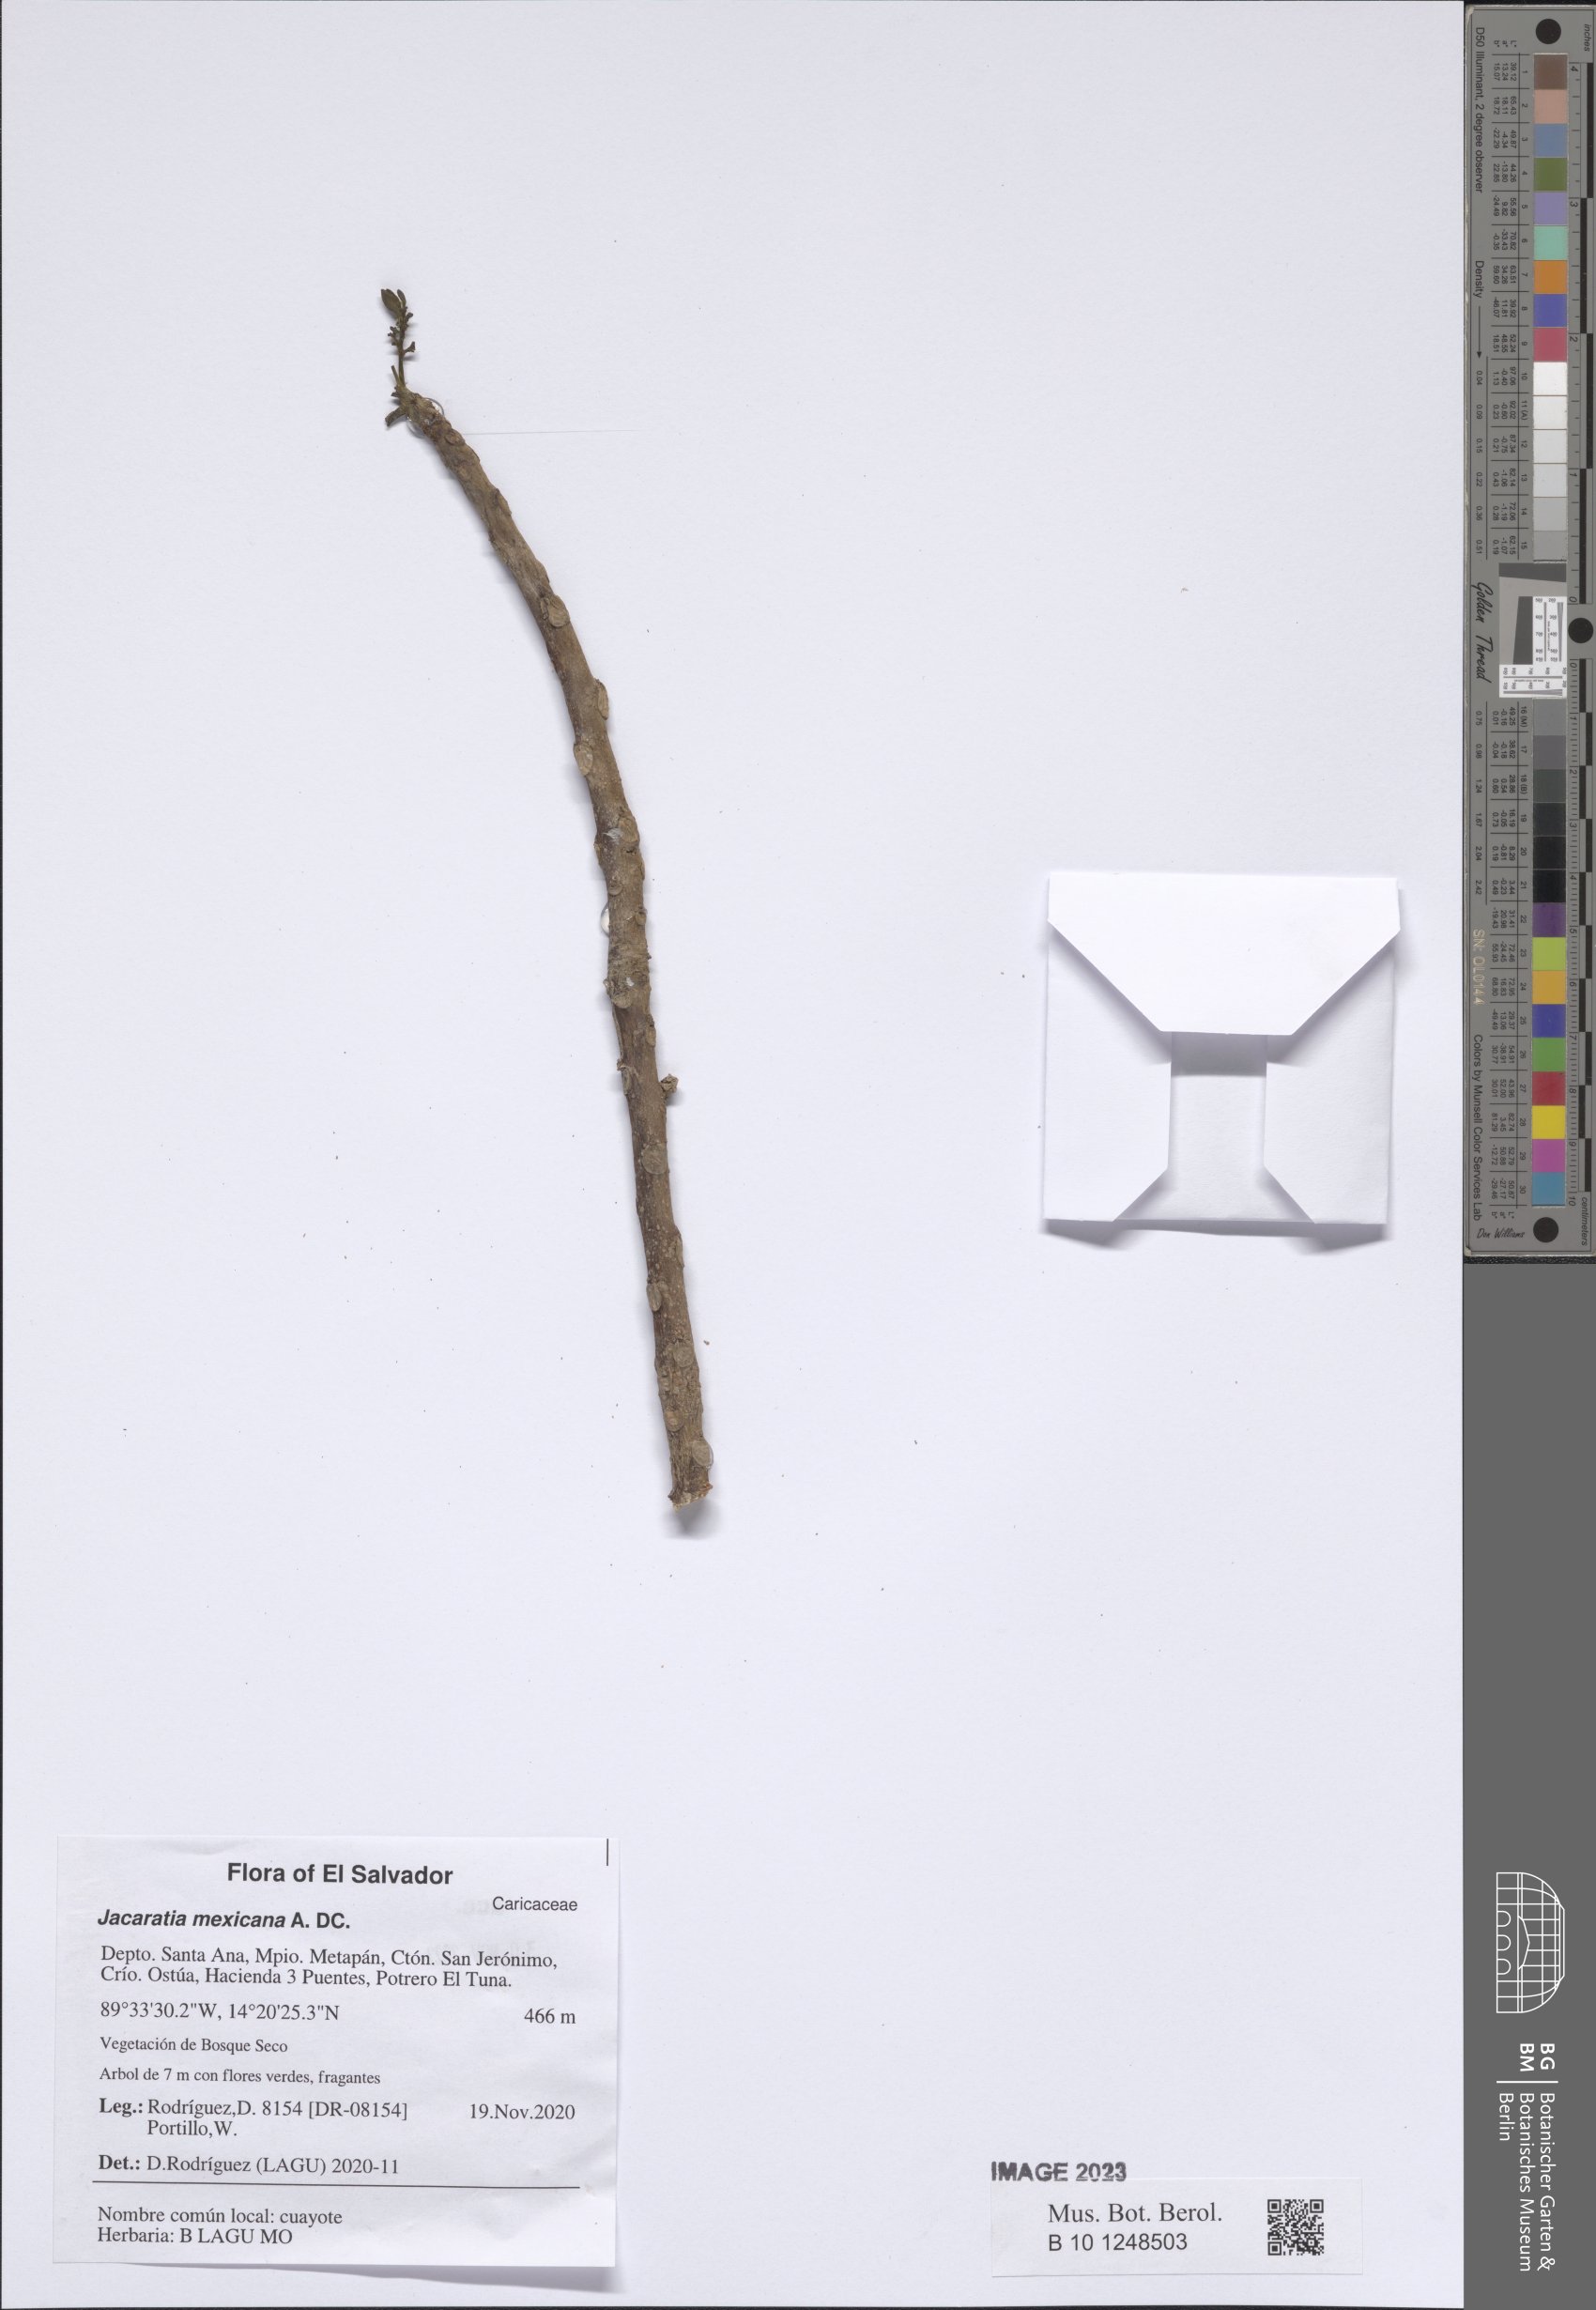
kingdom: Plantae
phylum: Tracheophyta
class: Magnoliopsida
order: Brassicales
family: Caricaceae
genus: Jacaratia
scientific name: Jacaratia mexicana
